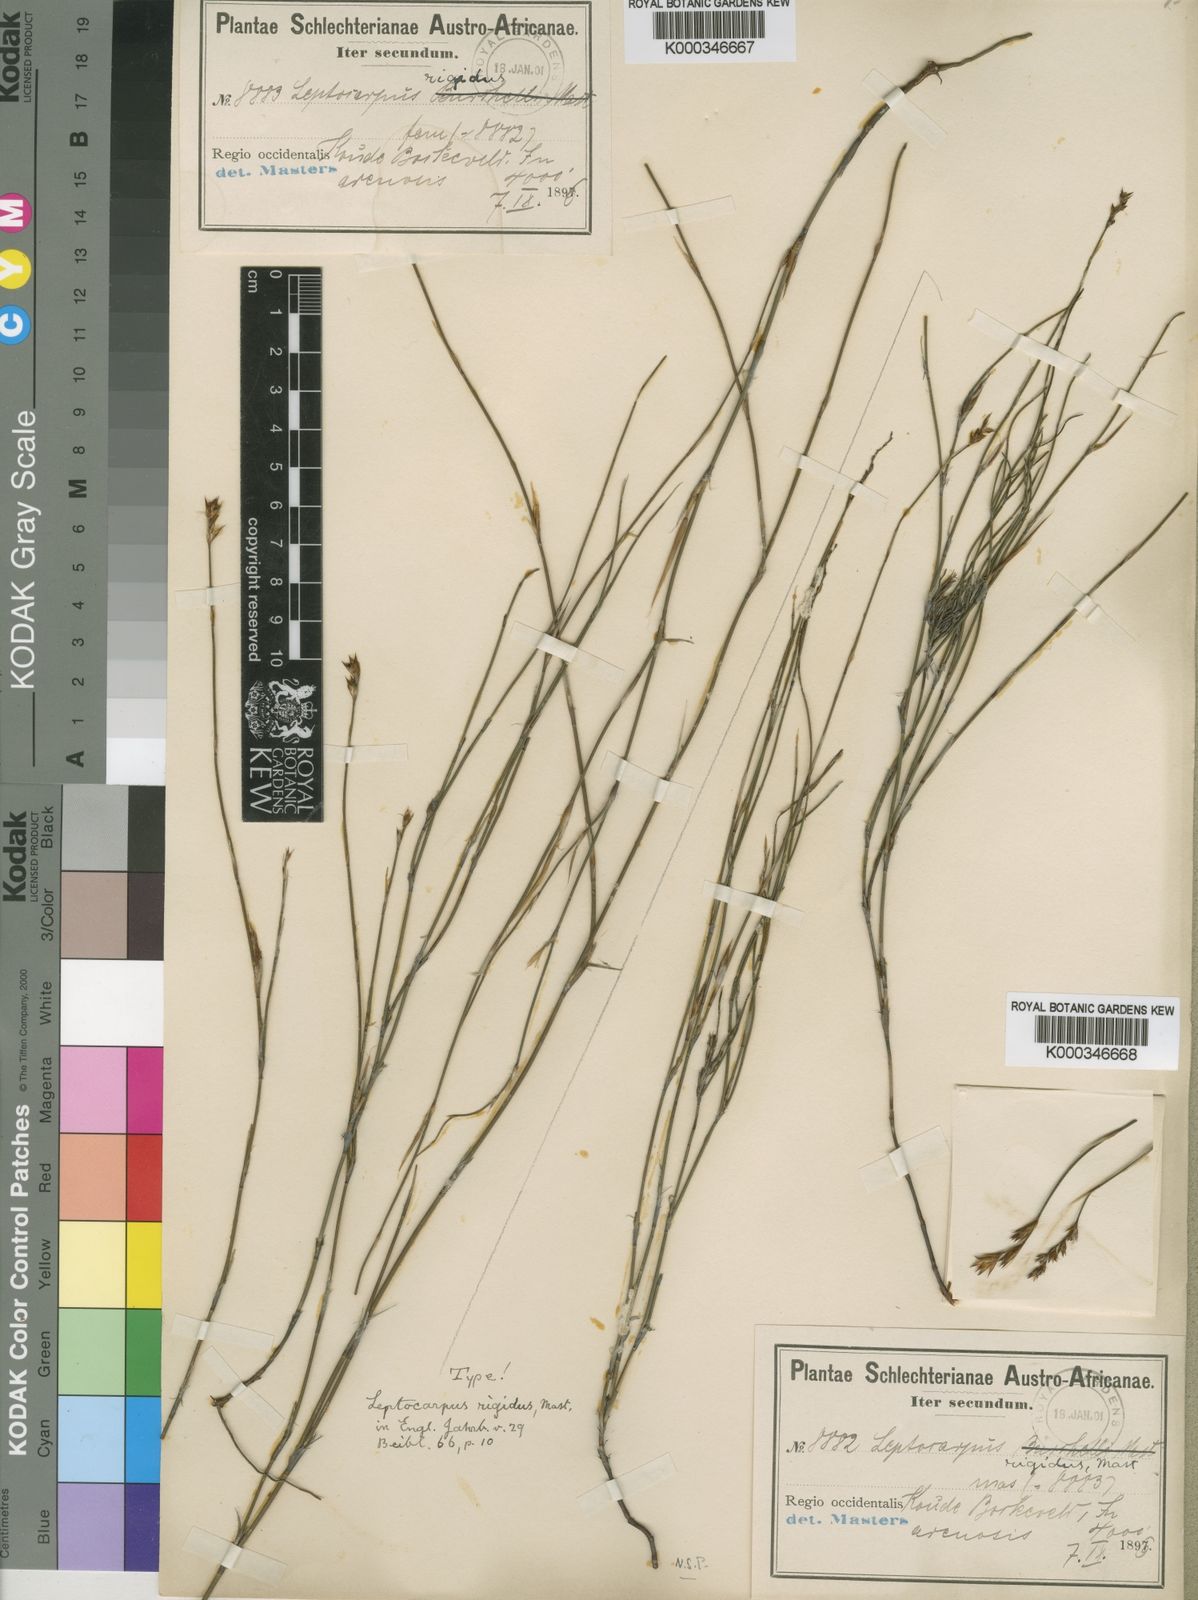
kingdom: Plantae
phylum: Tracheophyta
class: Liliopsida
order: Poales
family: Restionaceae
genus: Restio
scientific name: Restio rigidus
